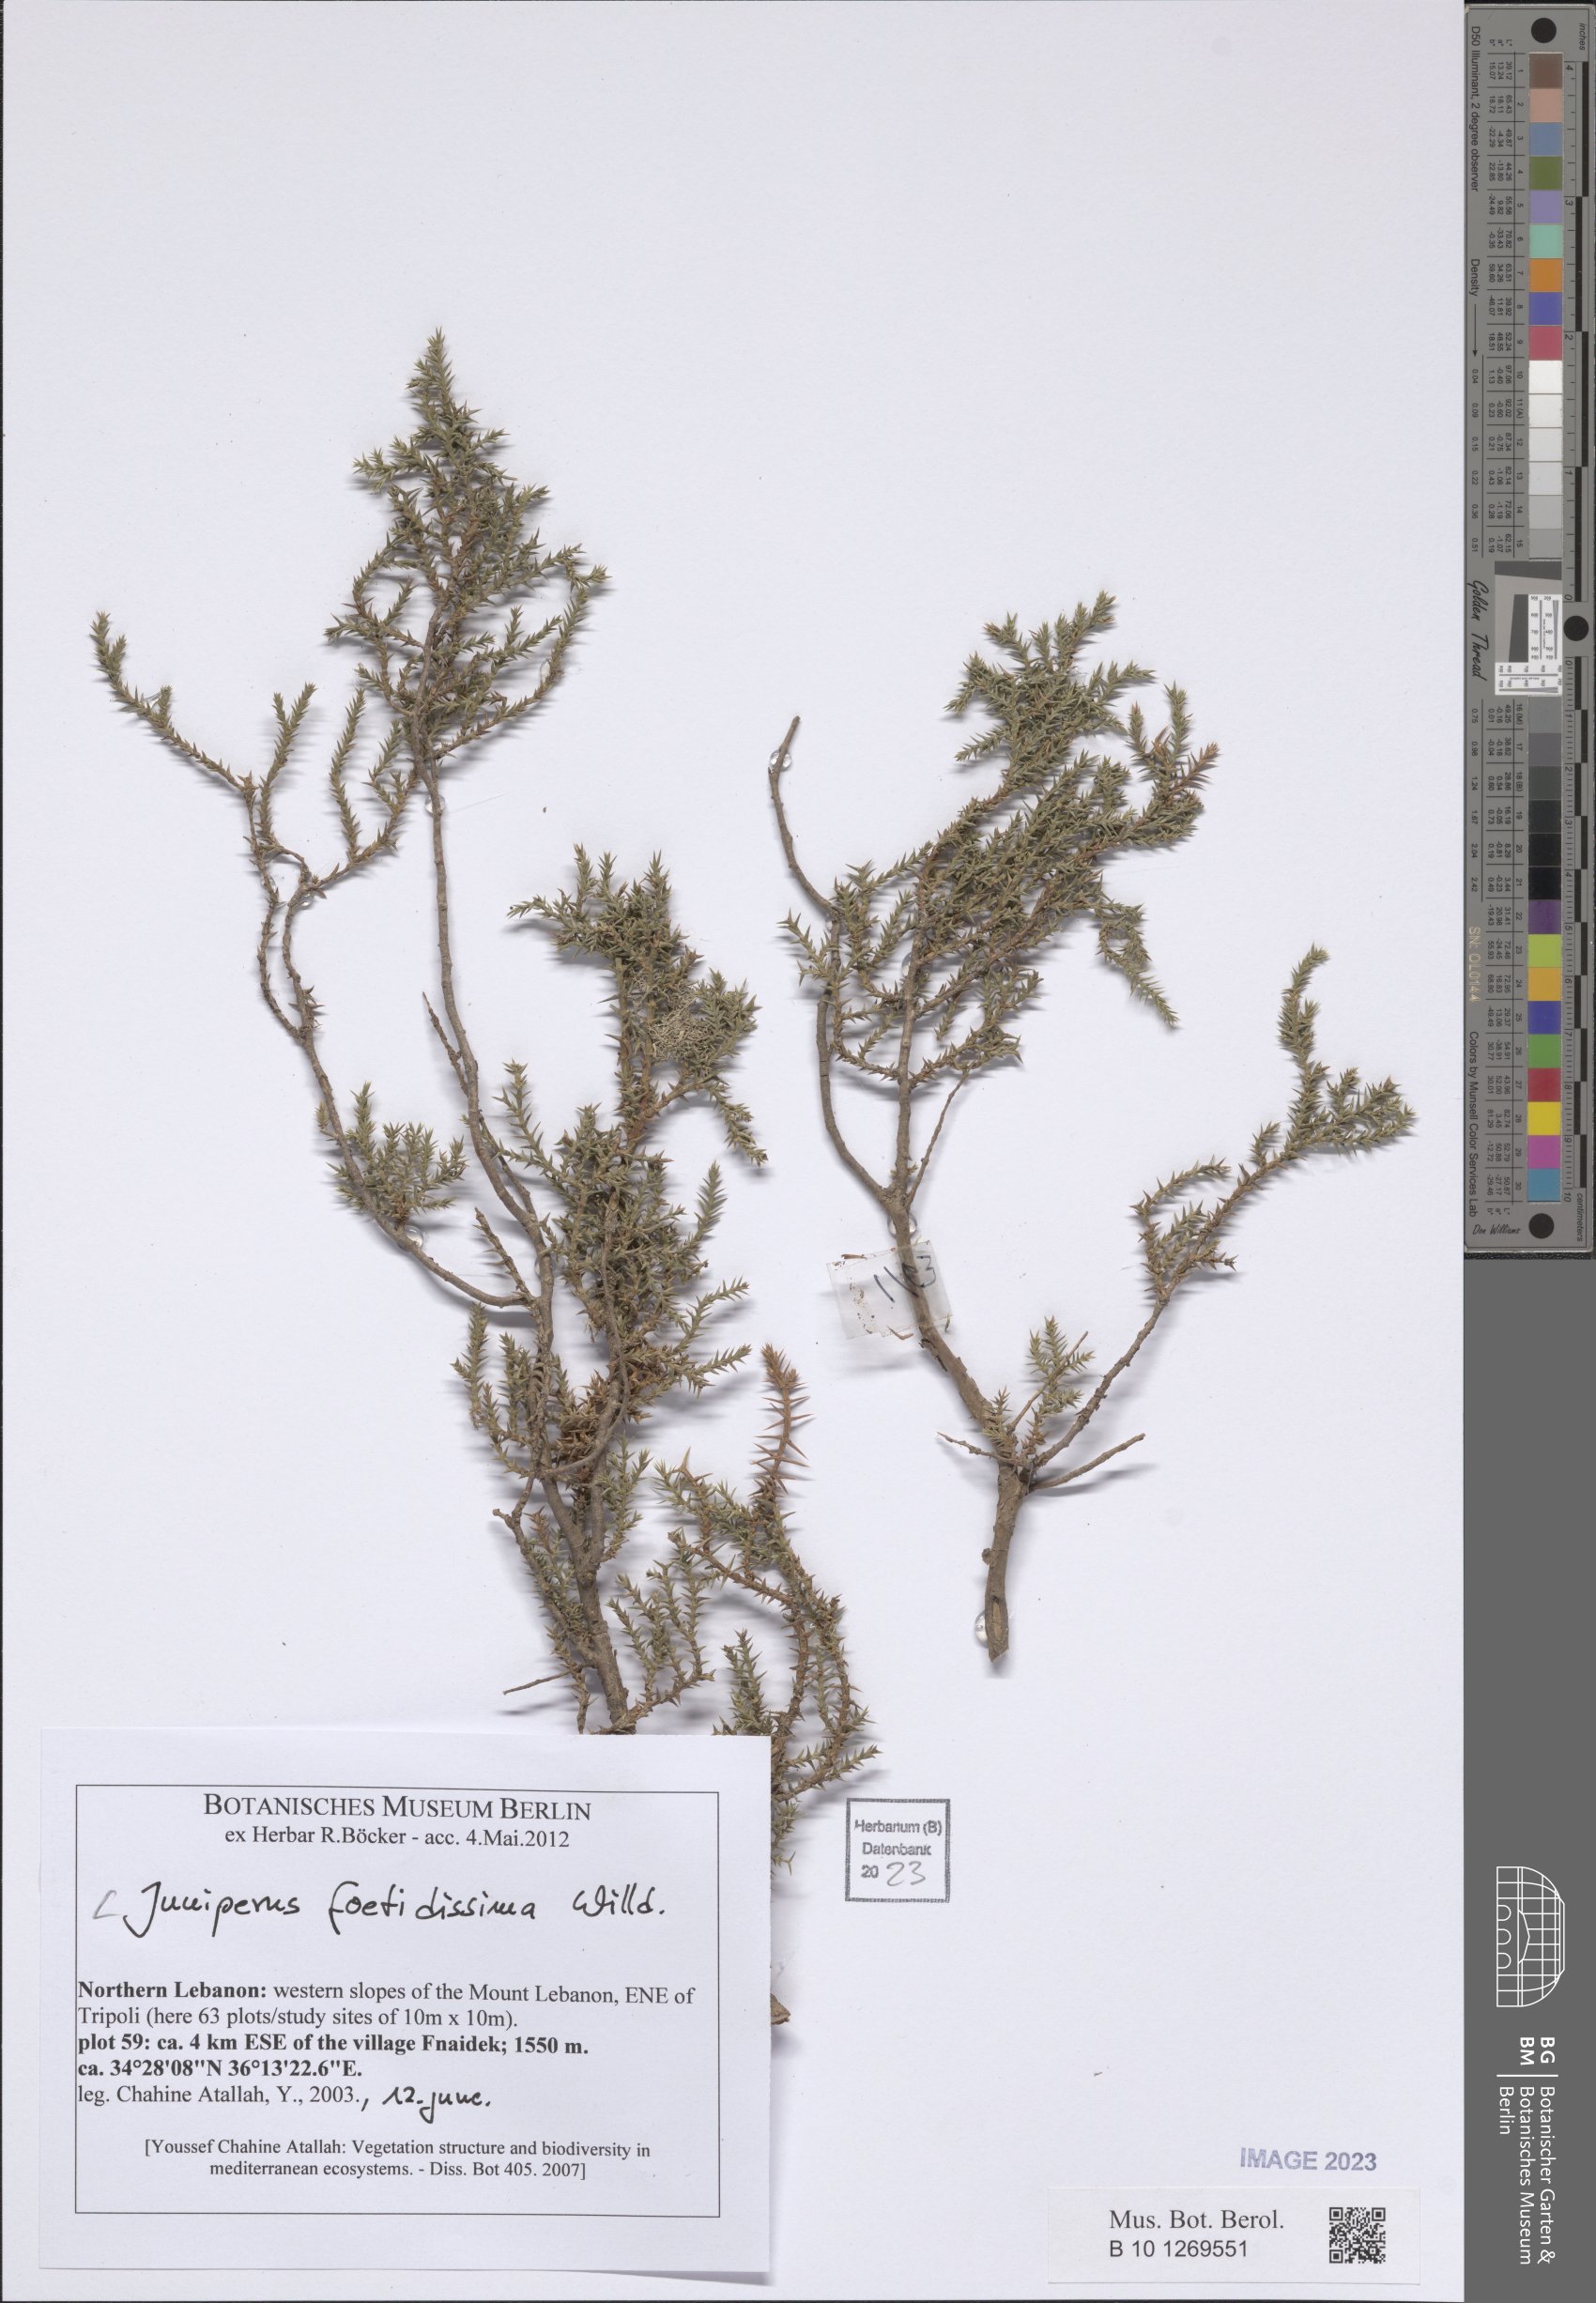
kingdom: Plantae
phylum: Tracheophyta
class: Pinopsida
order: Pinales
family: Cupressaceae
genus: Juniperus
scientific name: Juniperus foetidissima
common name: Stinking juniper
